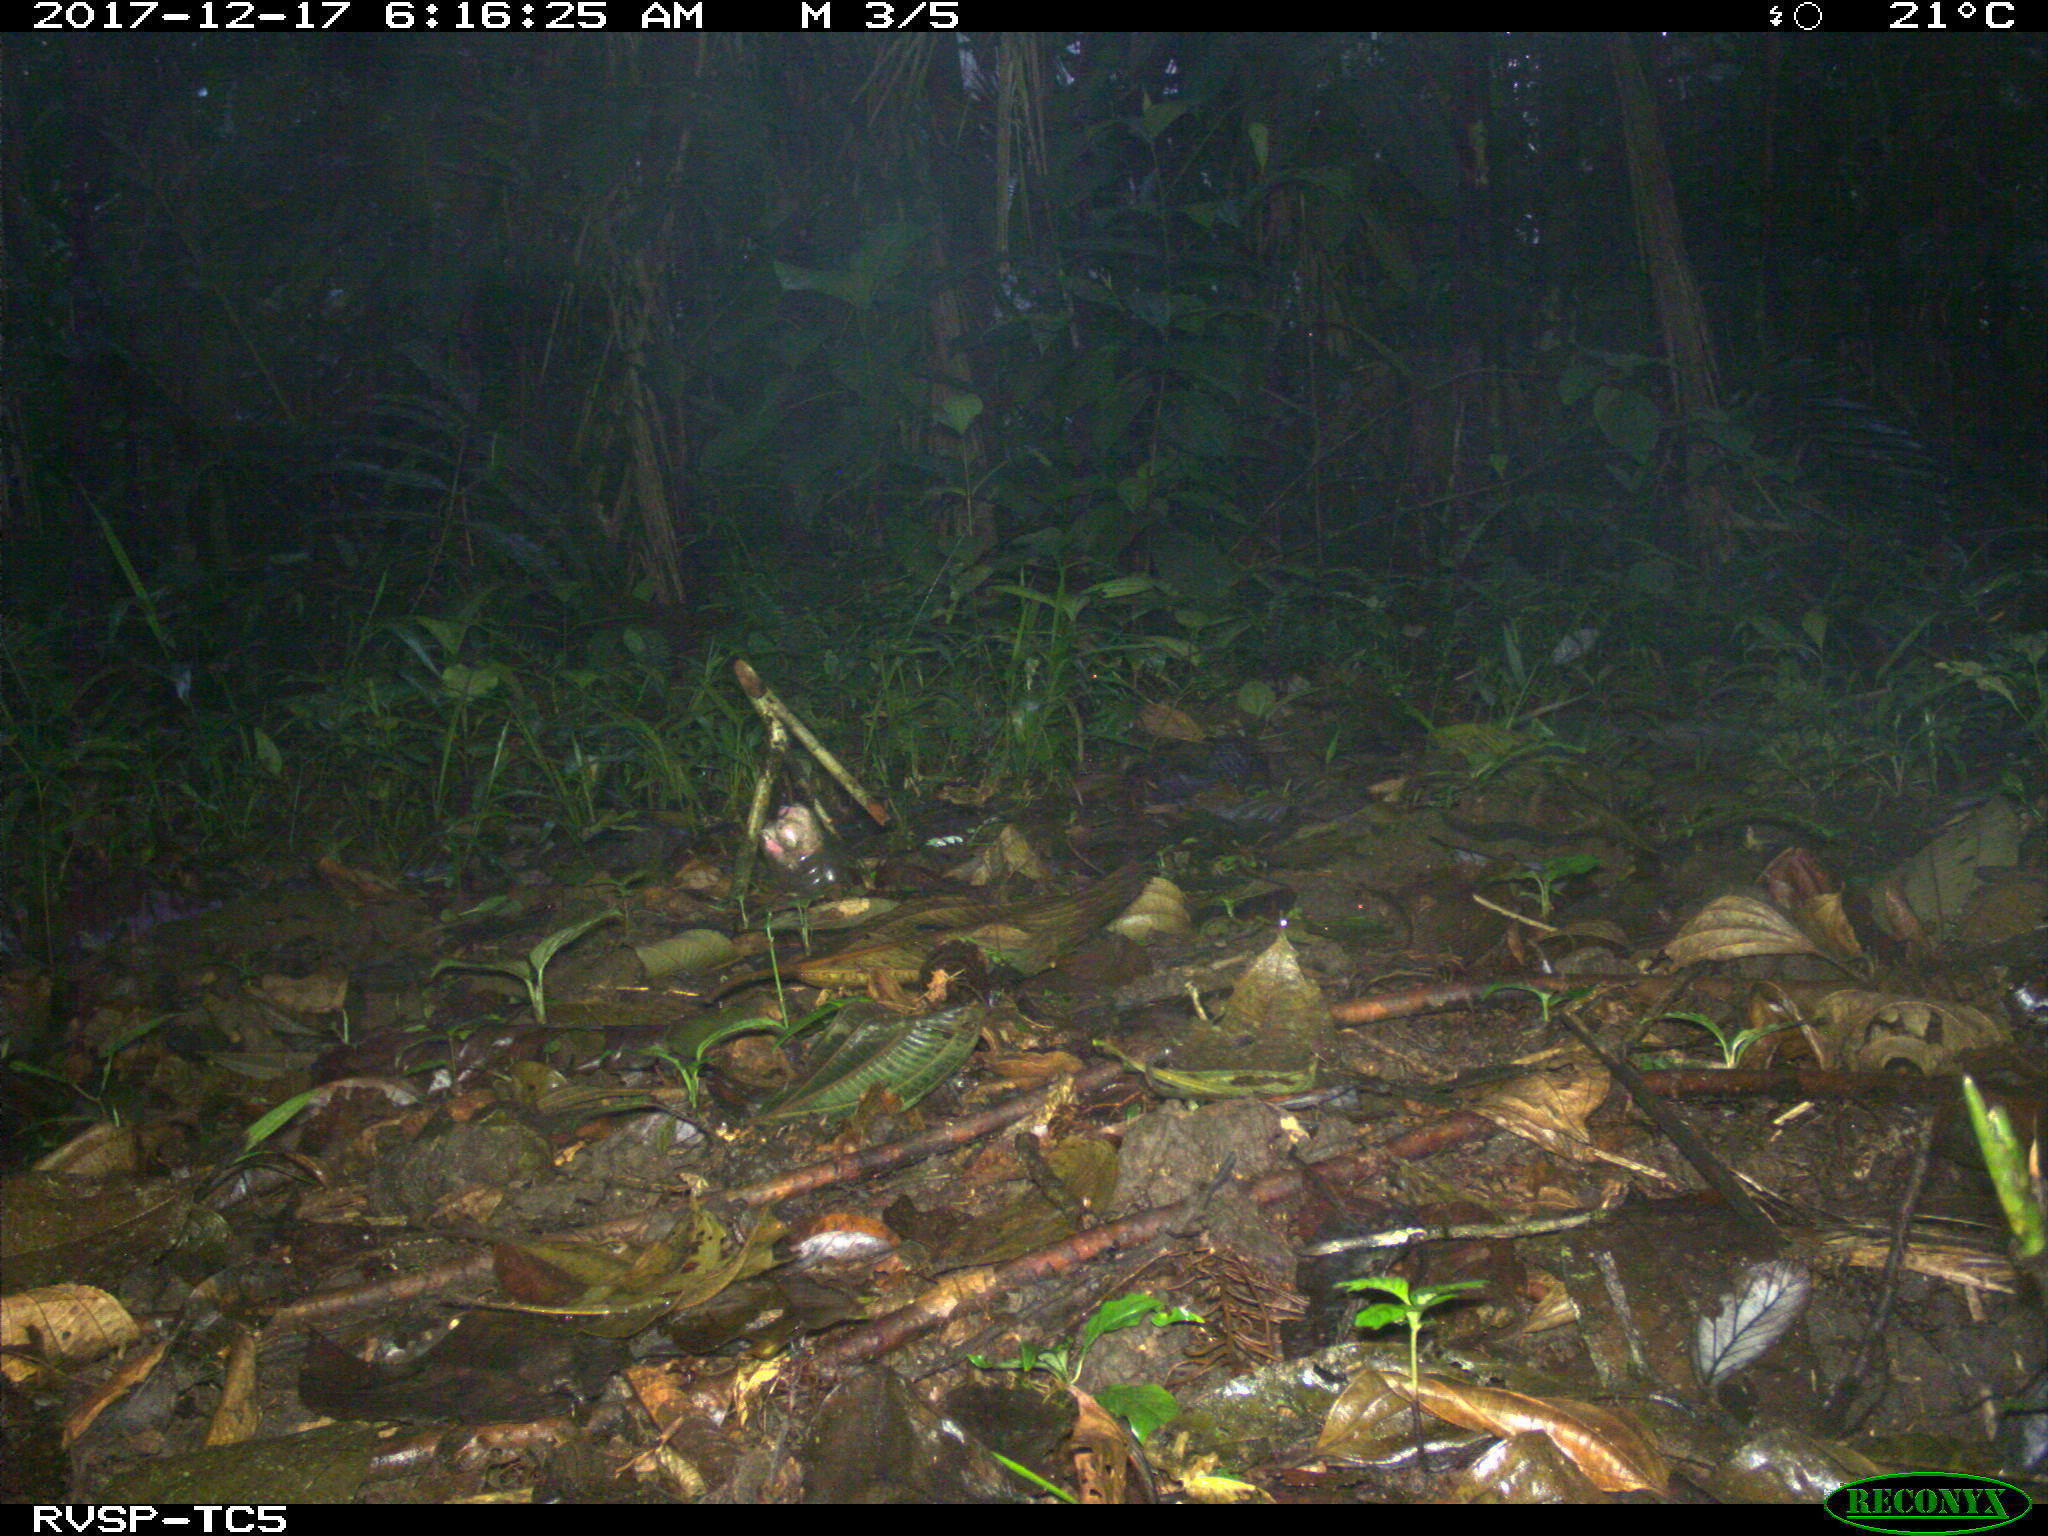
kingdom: Animalia
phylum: Chordata
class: Mammalia
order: Rodentia
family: Sciuridae
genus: Sciurus
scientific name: Sciurus granatensis
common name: Red-tailed squirrel
